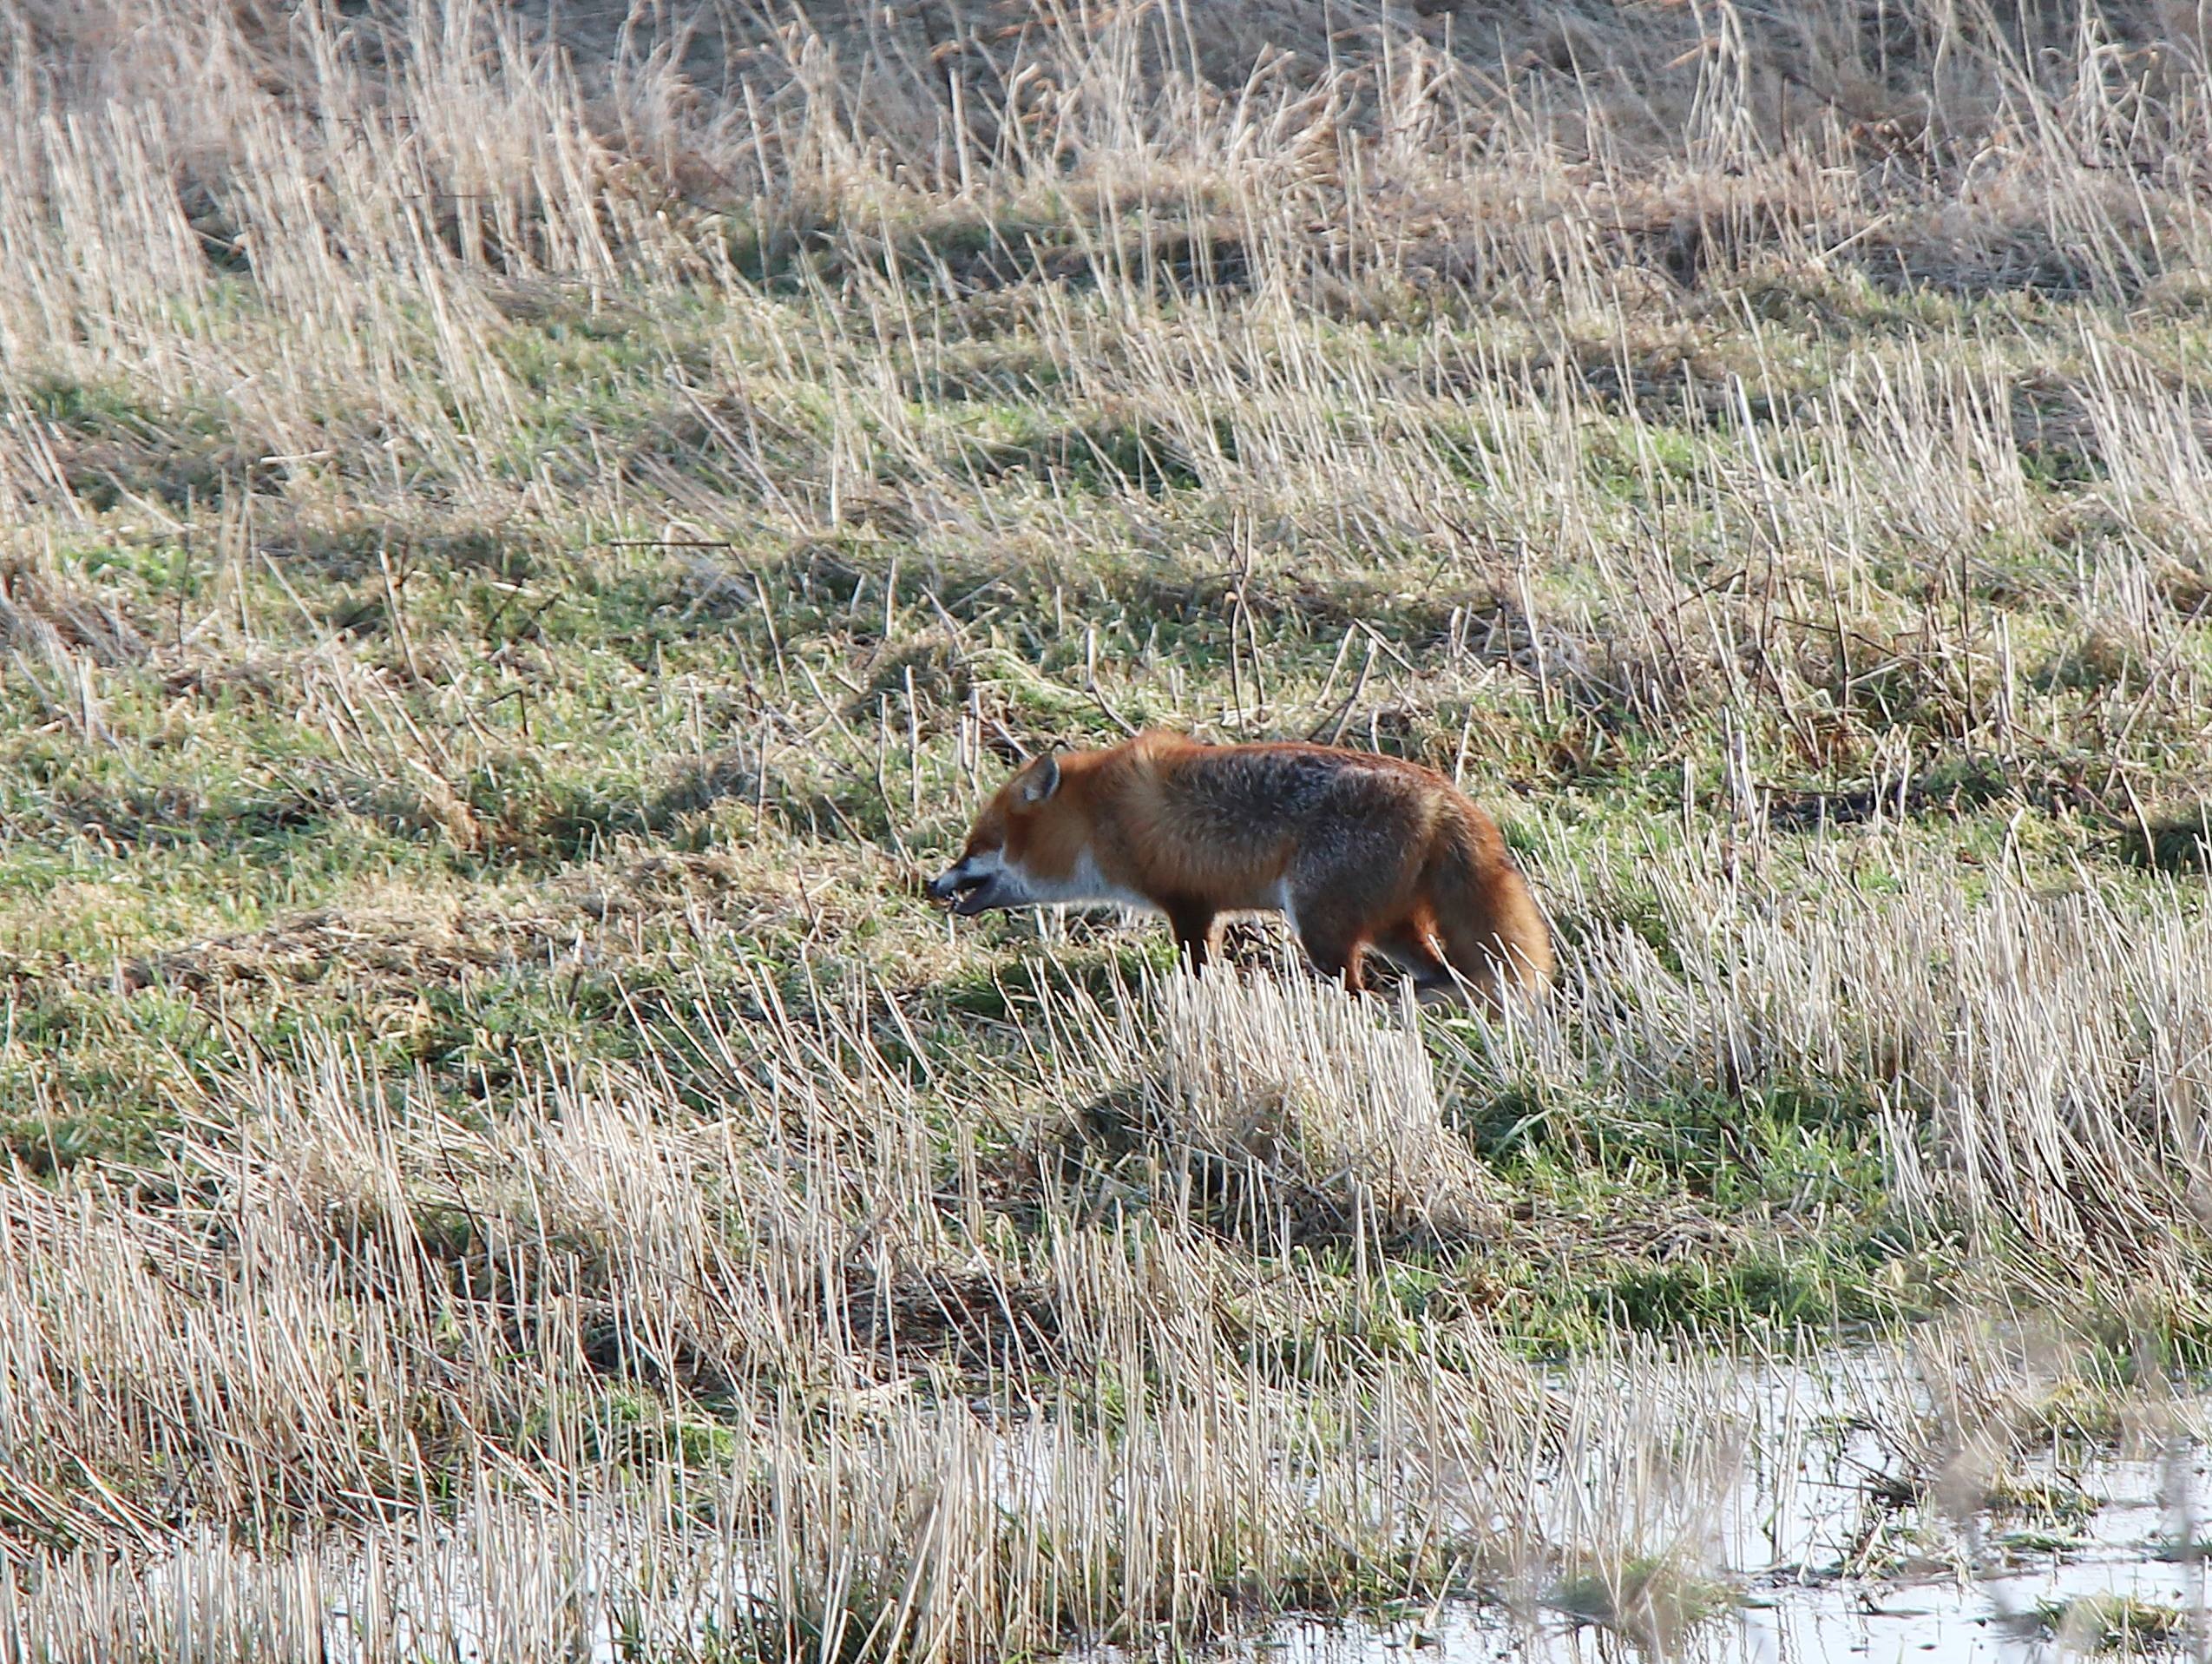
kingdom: Animalia
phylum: Chordata
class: Mammalia
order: Carnivora
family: Canidae
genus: Vulpes
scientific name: Vulpes vulpes
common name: Ræv
